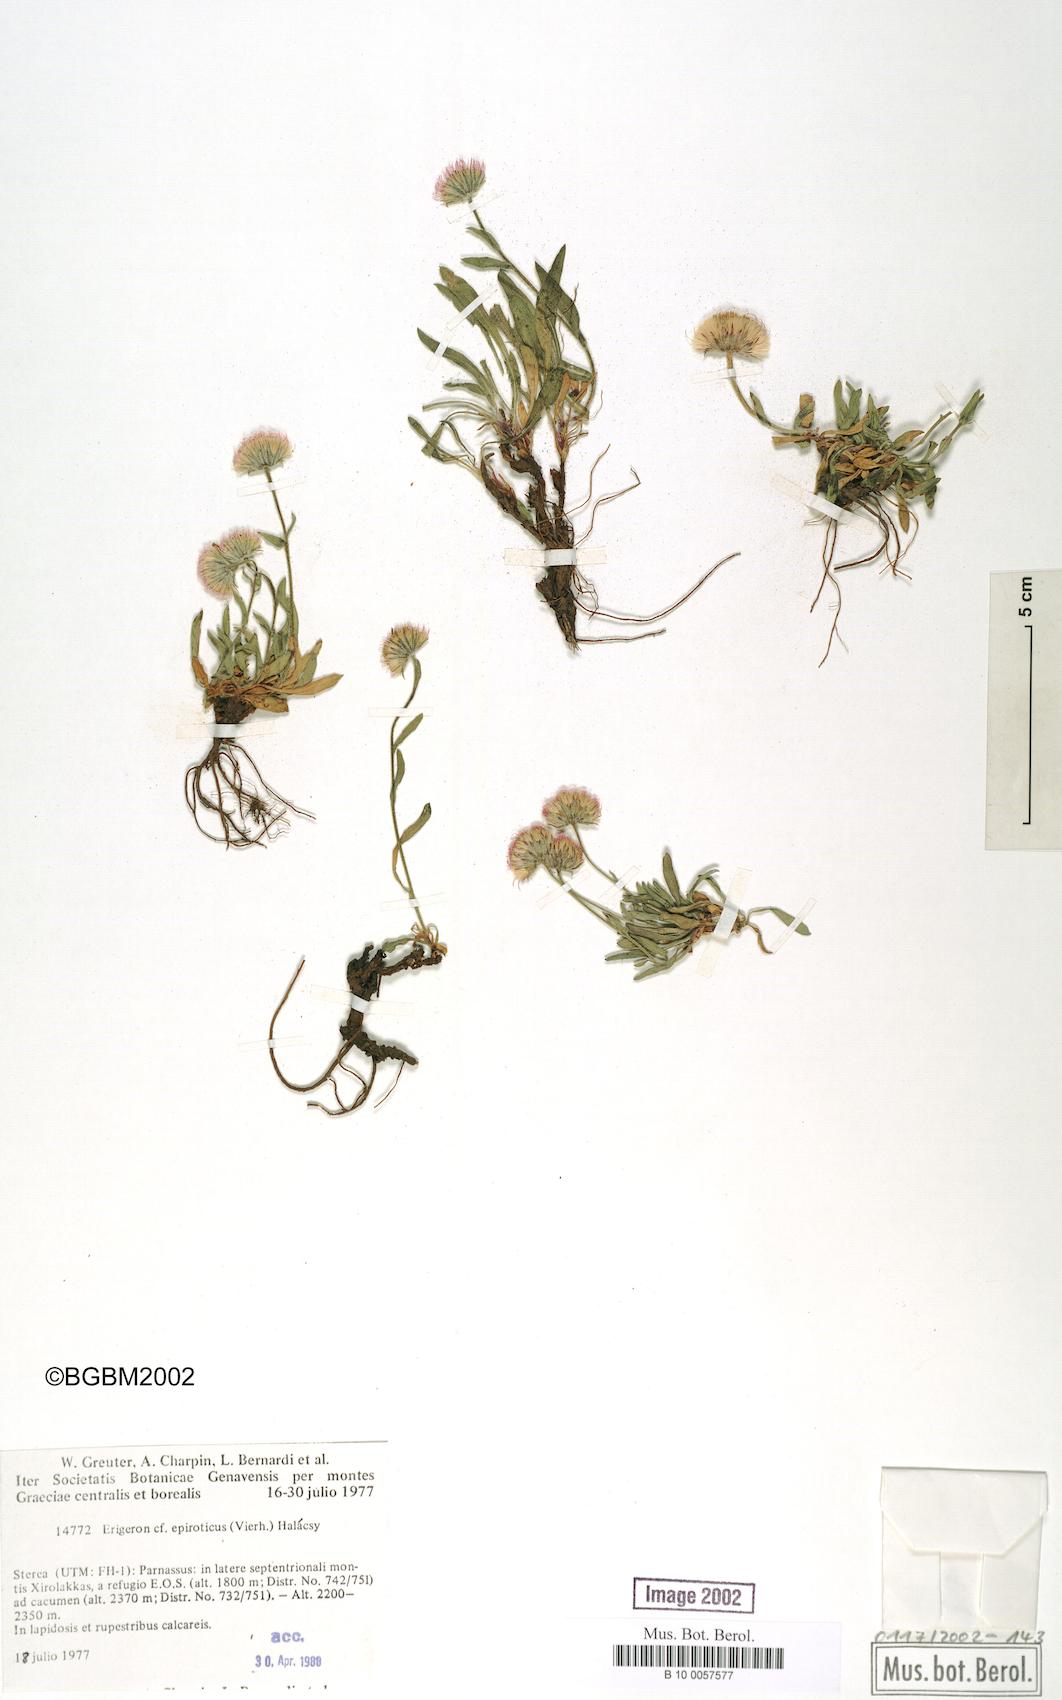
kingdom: Plantae
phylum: Tracheophyta
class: Magnoliopsida
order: Asterales
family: Asteraceae
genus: Erigeron
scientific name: Erigeron epiroticus
